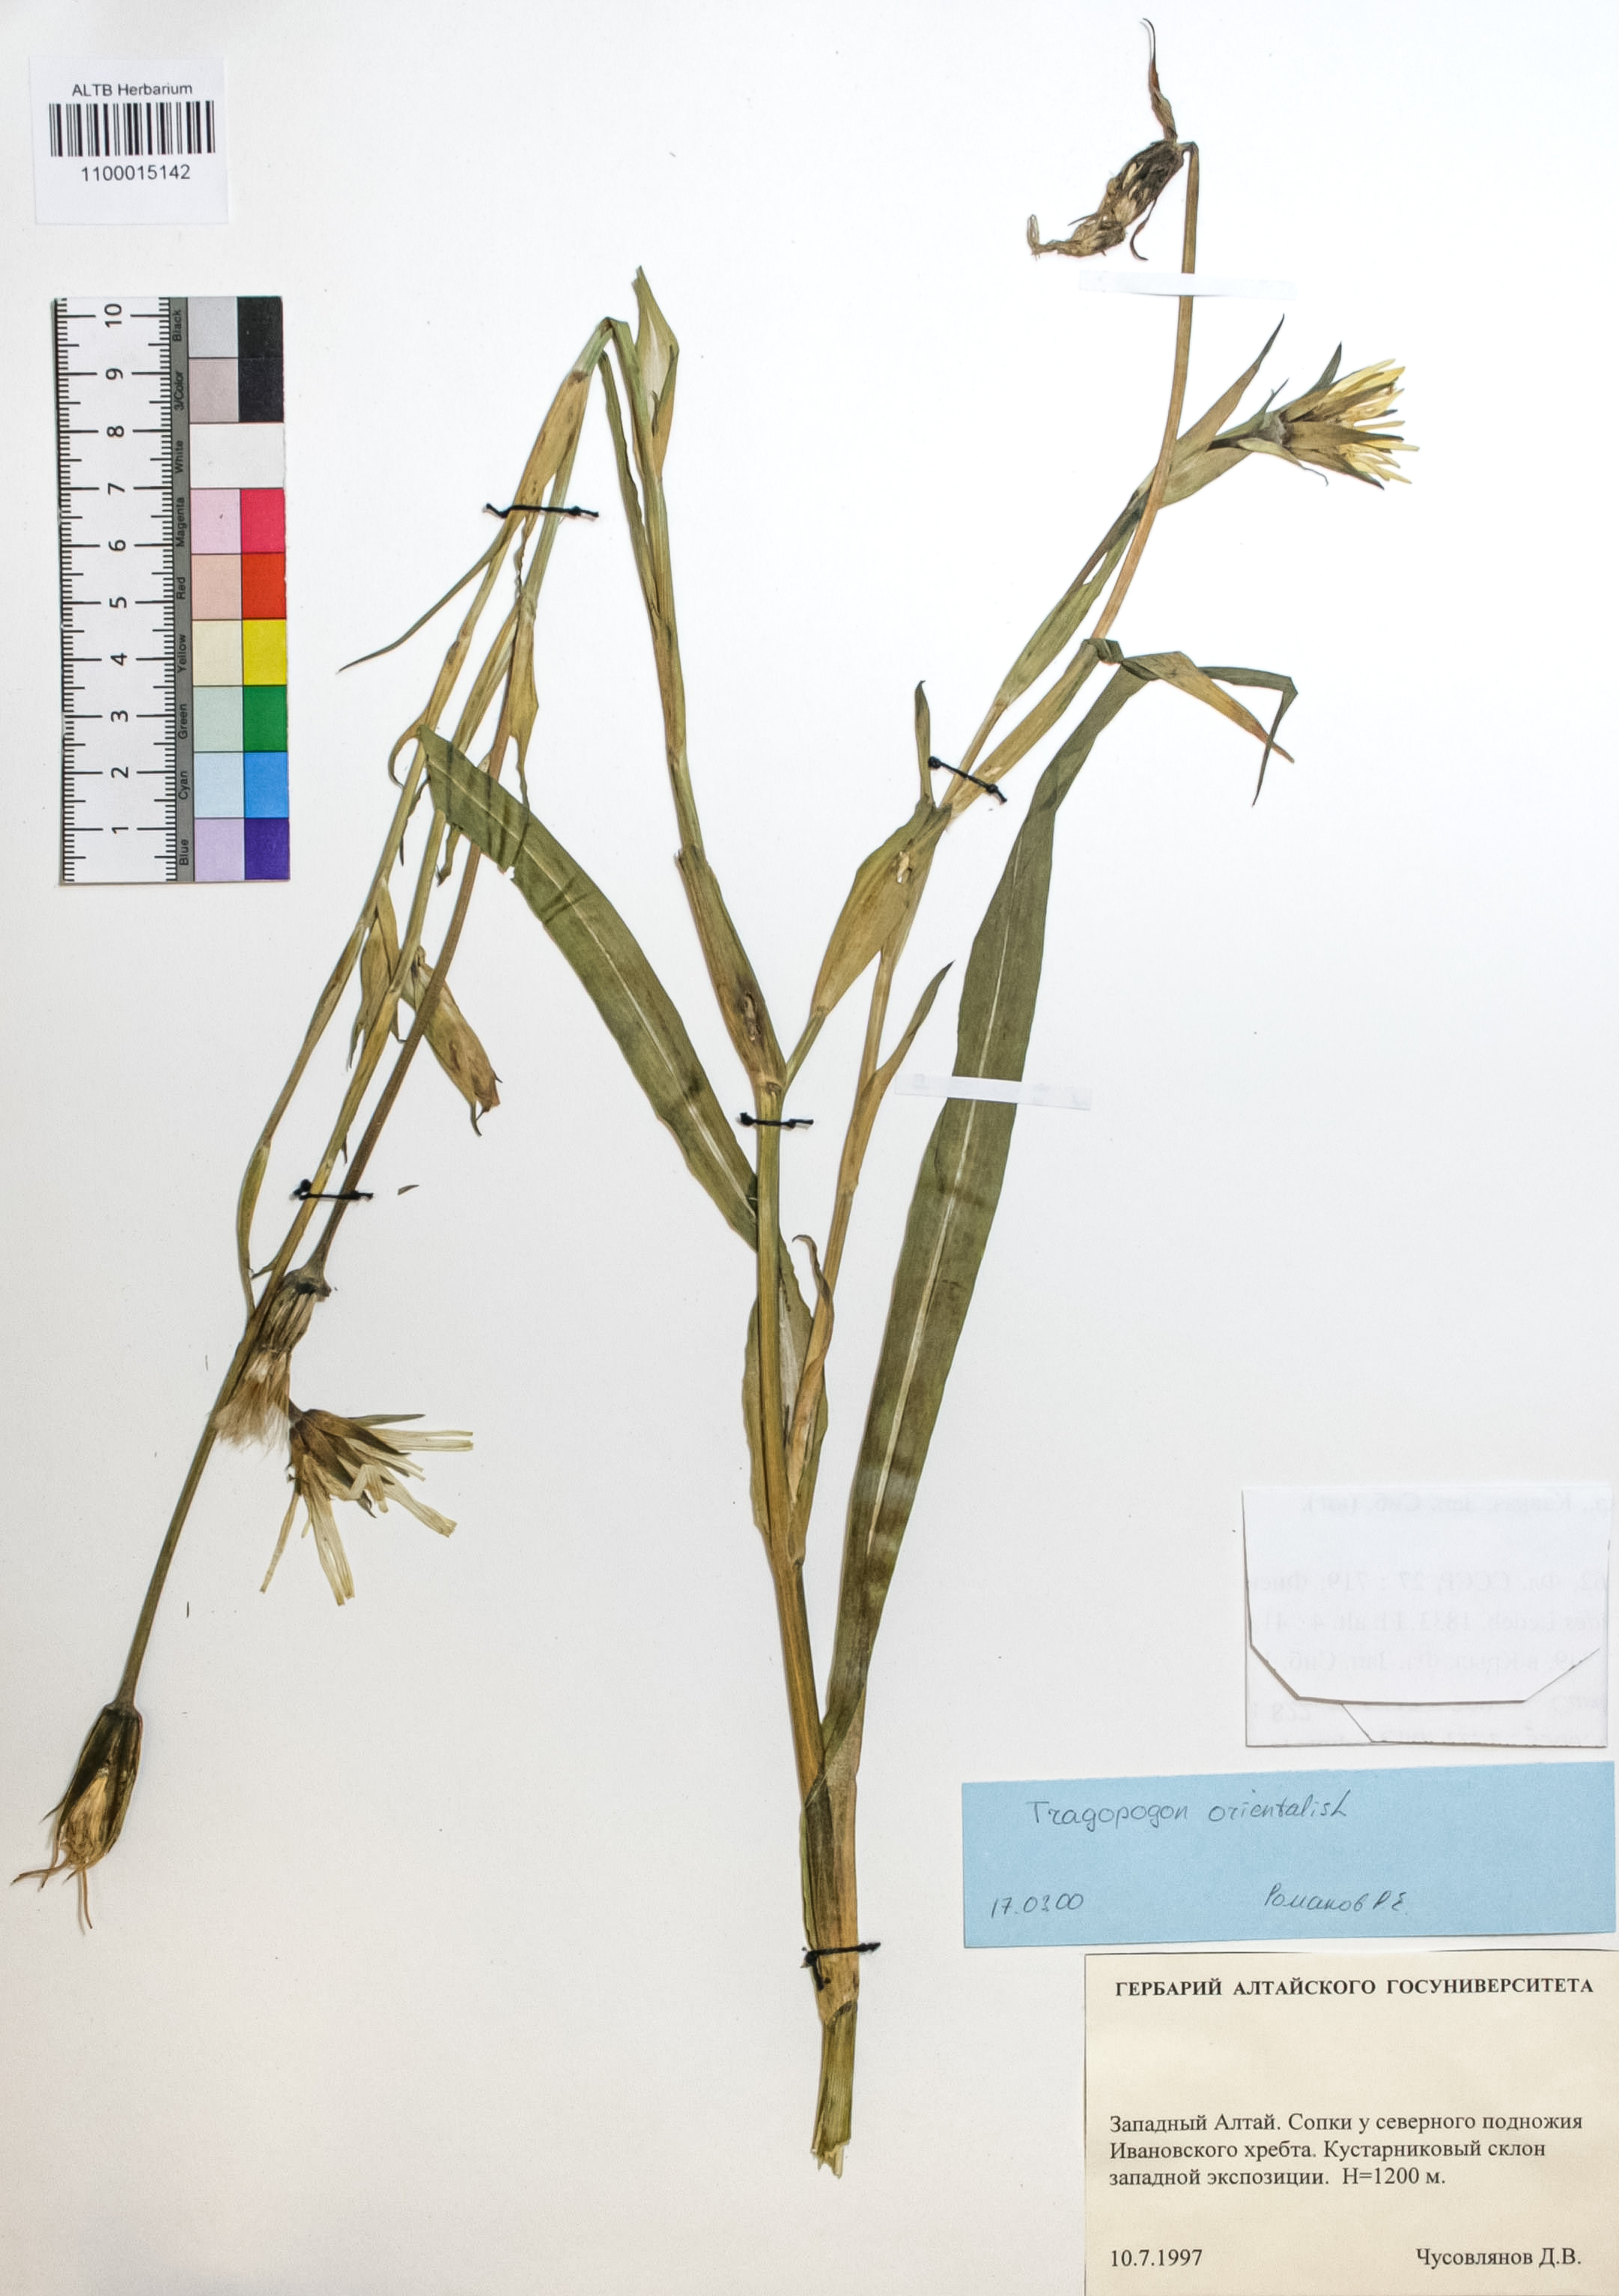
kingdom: Plantae
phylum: Tracheophyta
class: Magnoliopsida
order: Asterales
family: Asteraceae
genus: Tragopogon
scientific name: Tragopogon orientalis
